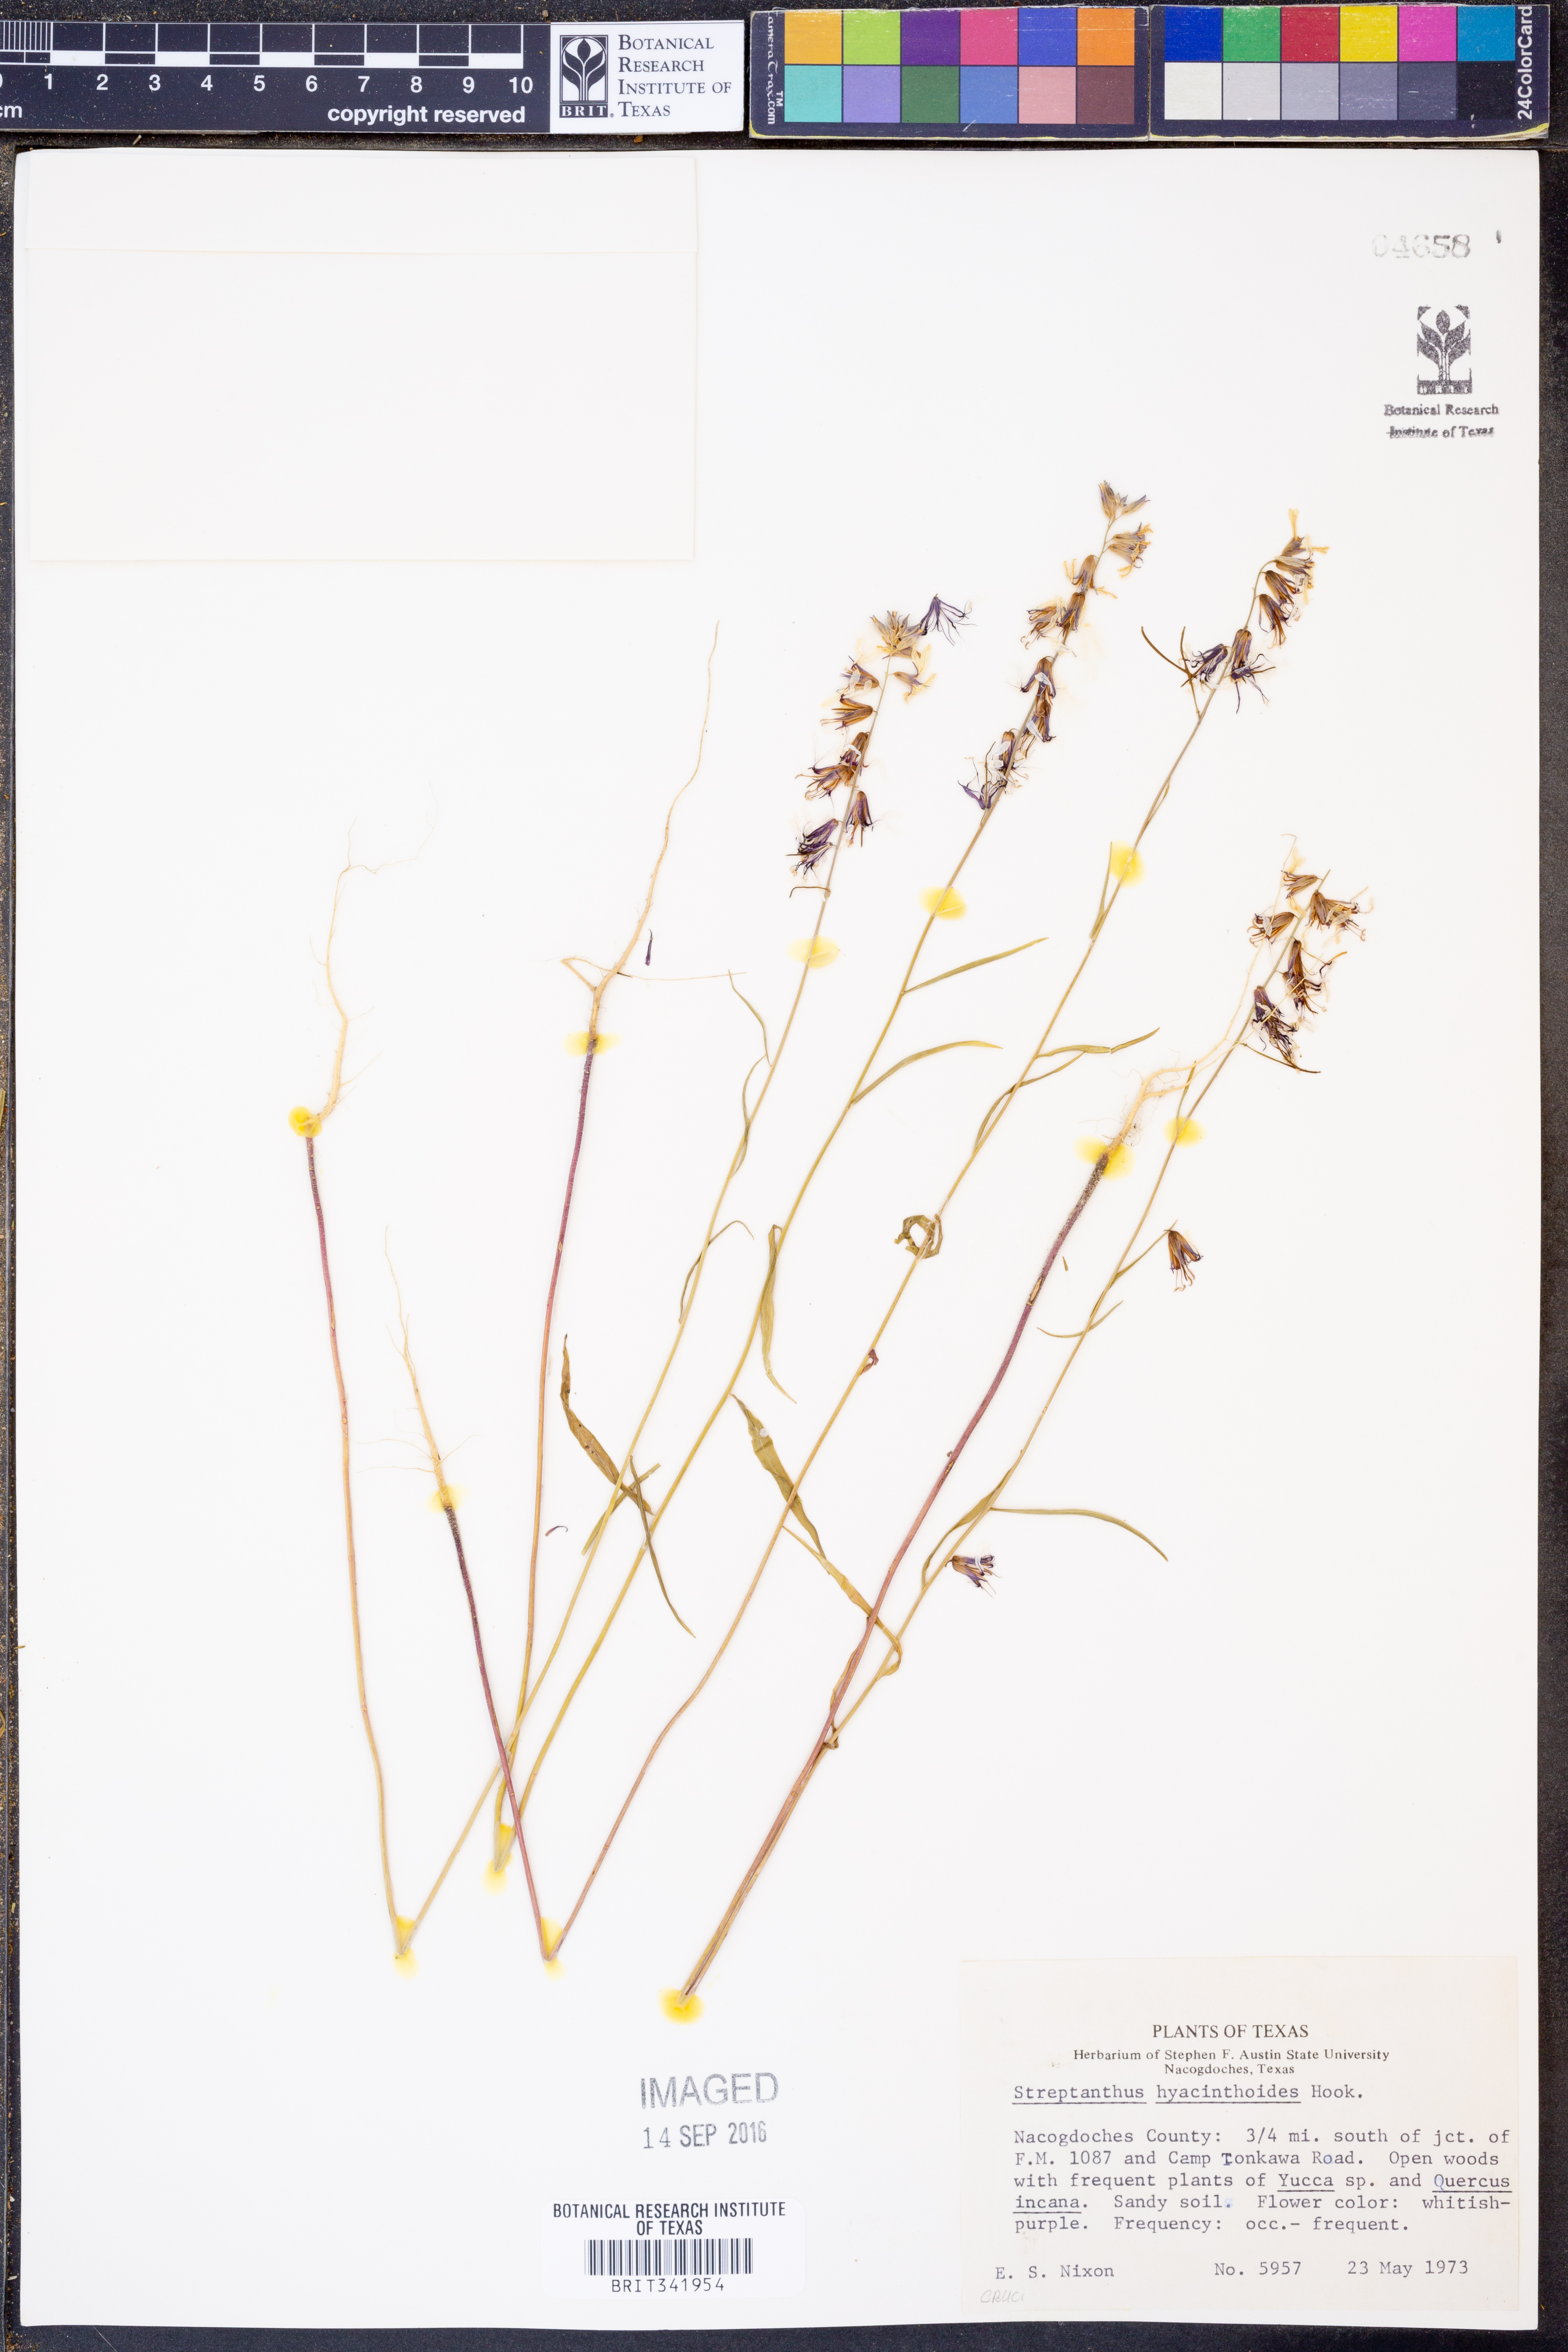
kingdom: Plantae
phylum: Tracheophyta
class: Magnoliopsida
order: Brassicales
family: Brassicaceae
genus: Streptanthus
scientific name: Streptanthus hyacinthoides
